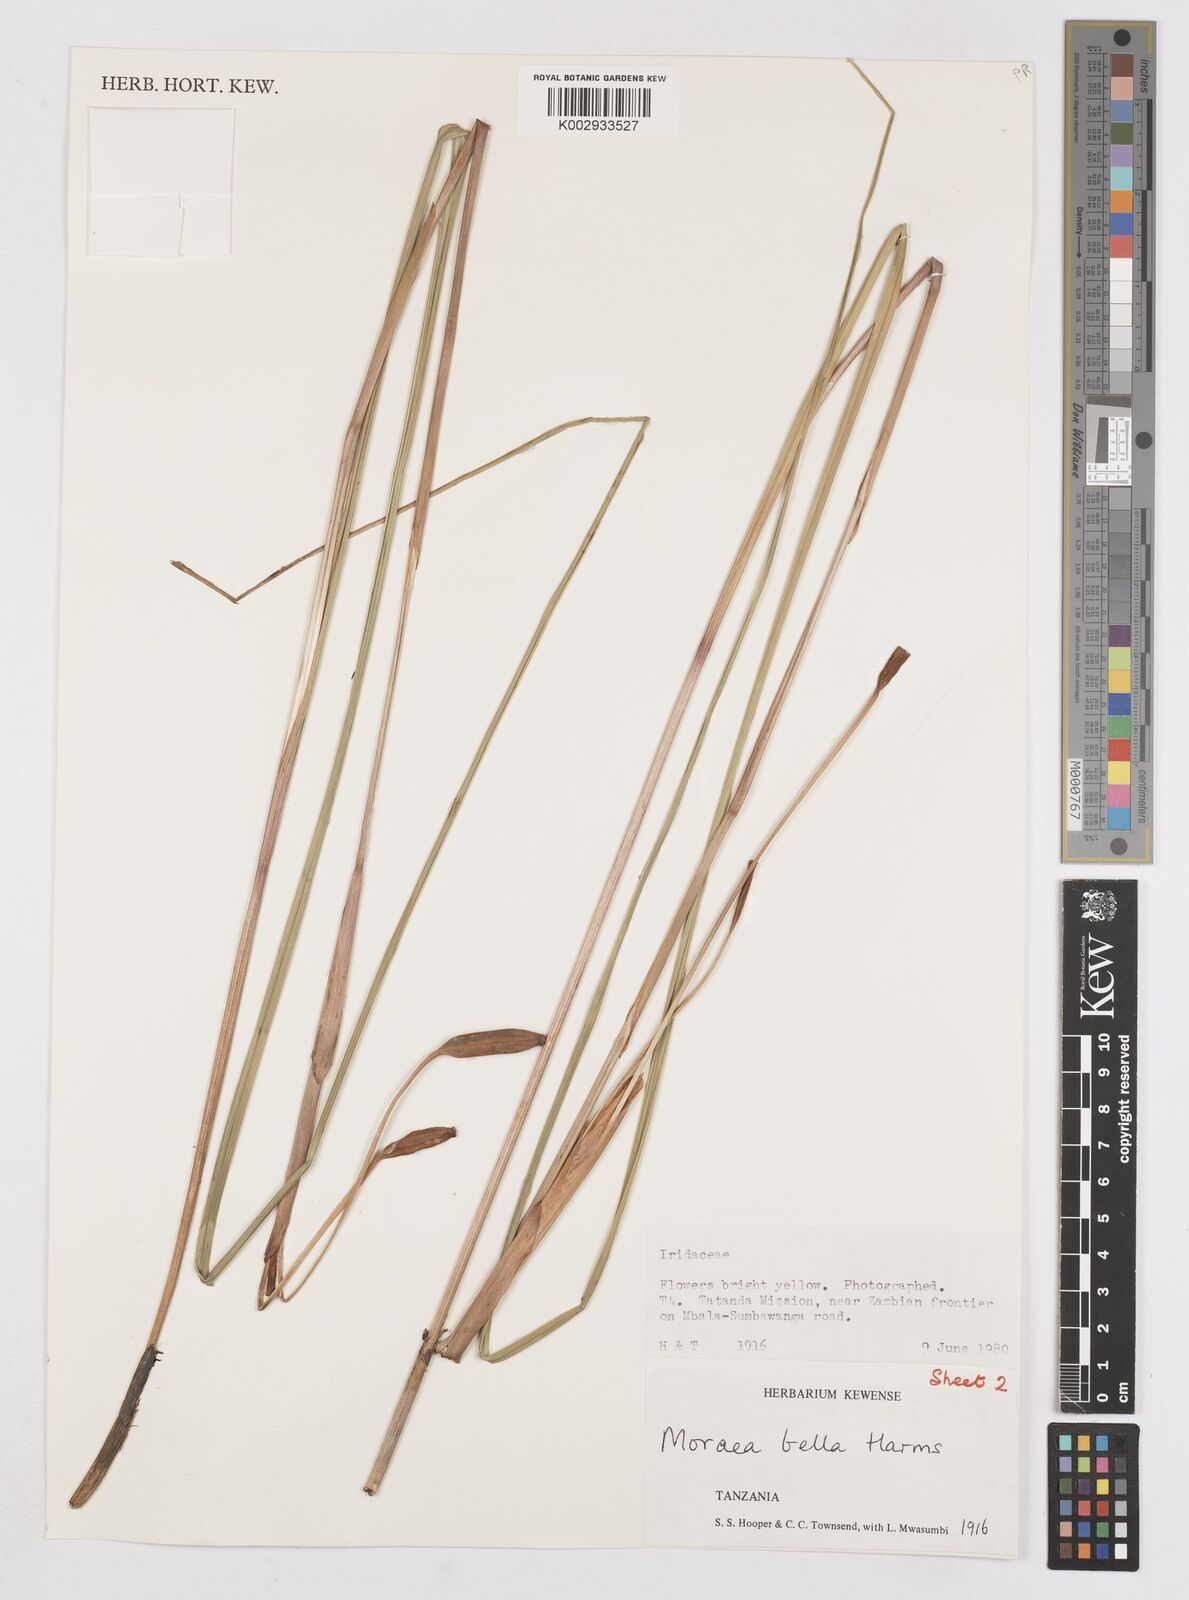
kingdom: Plantae
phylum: Tracheophyta
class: Liliopsida
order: Asparagales
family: Iridaceae
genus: Moraea
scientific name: Moraea bella
